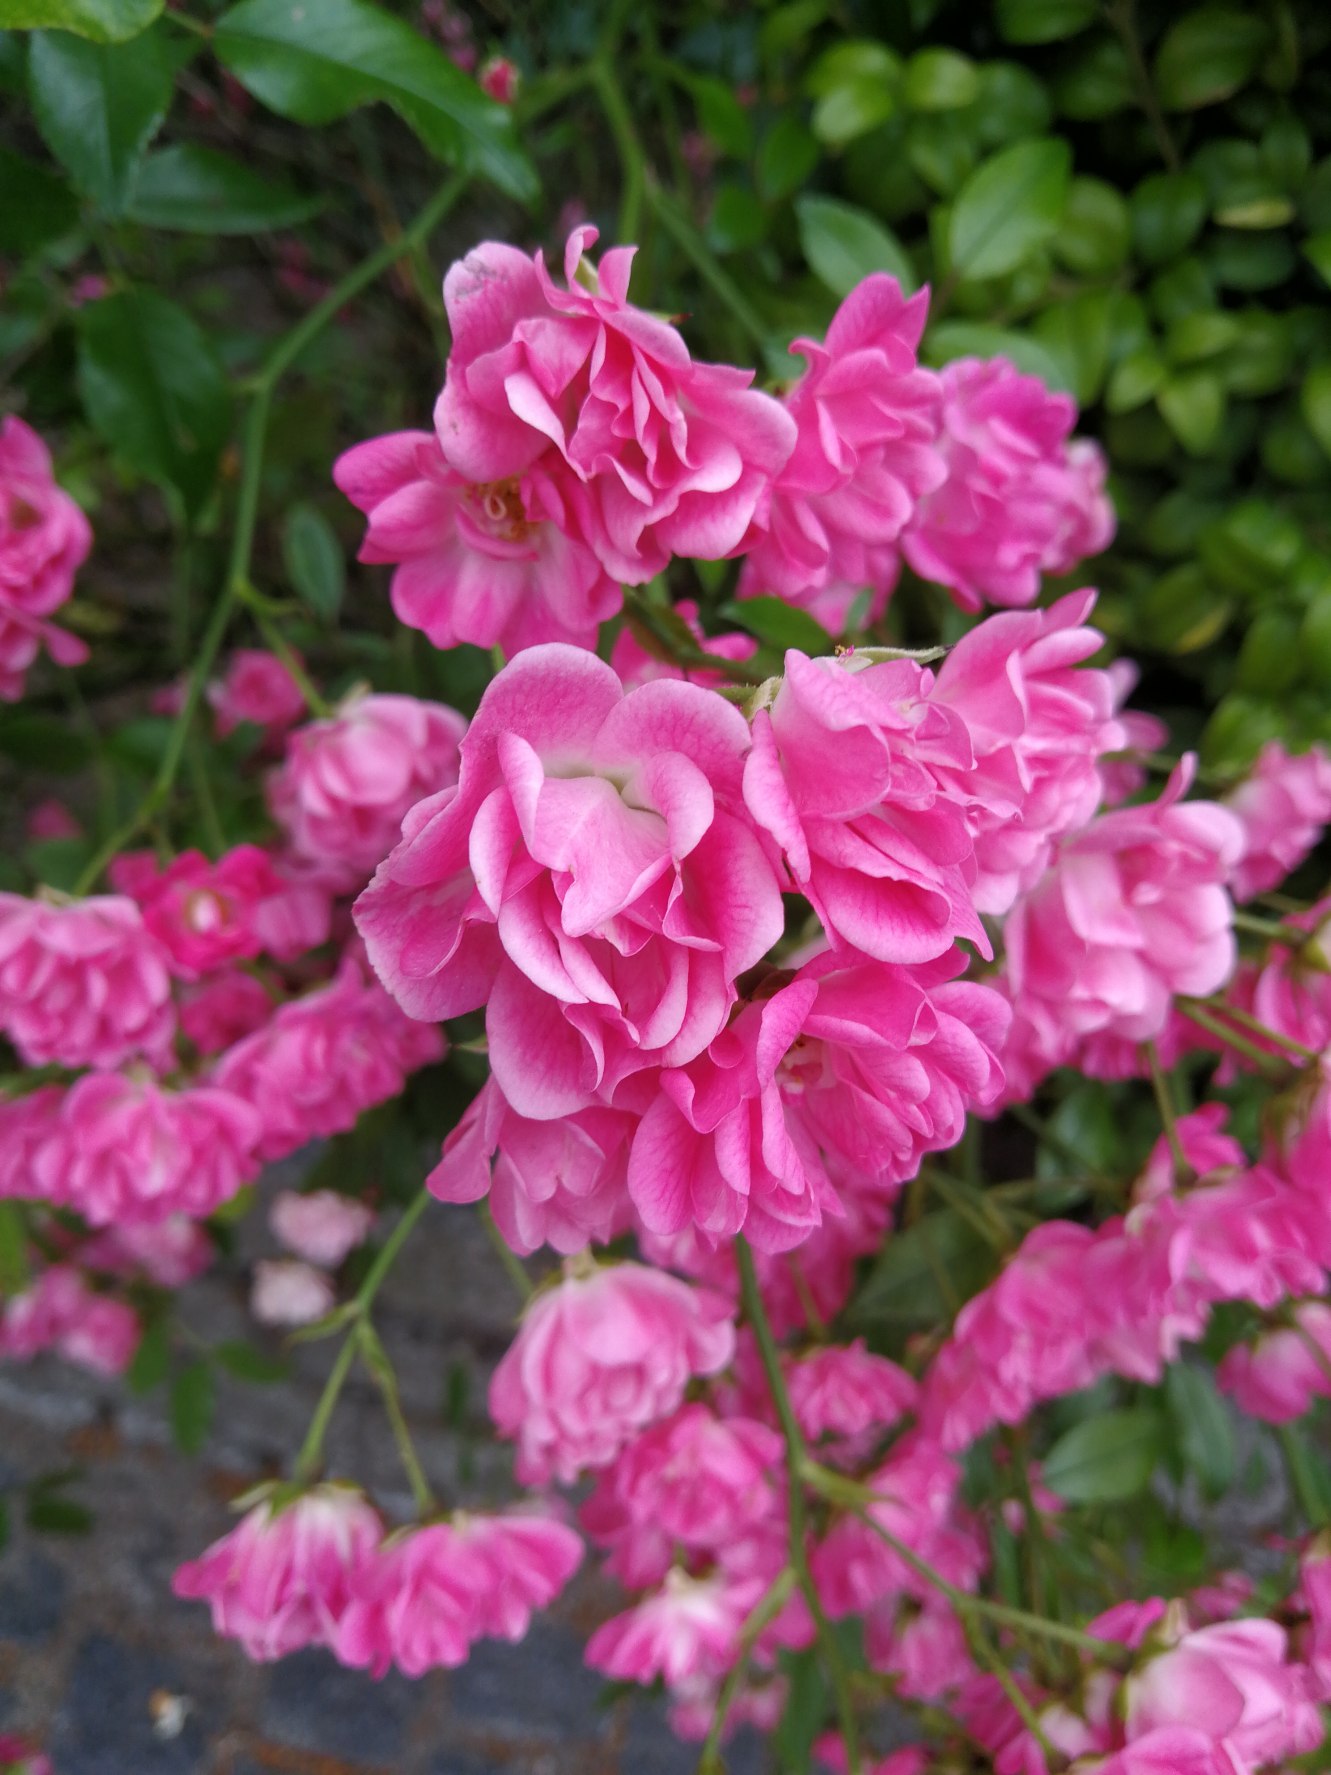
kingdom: Plantae
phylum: Tracheophyta
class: Magnoliopsida
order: Rosales
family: Rosaceae
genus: Rosa
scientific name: Rosa
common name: Roseslægten
